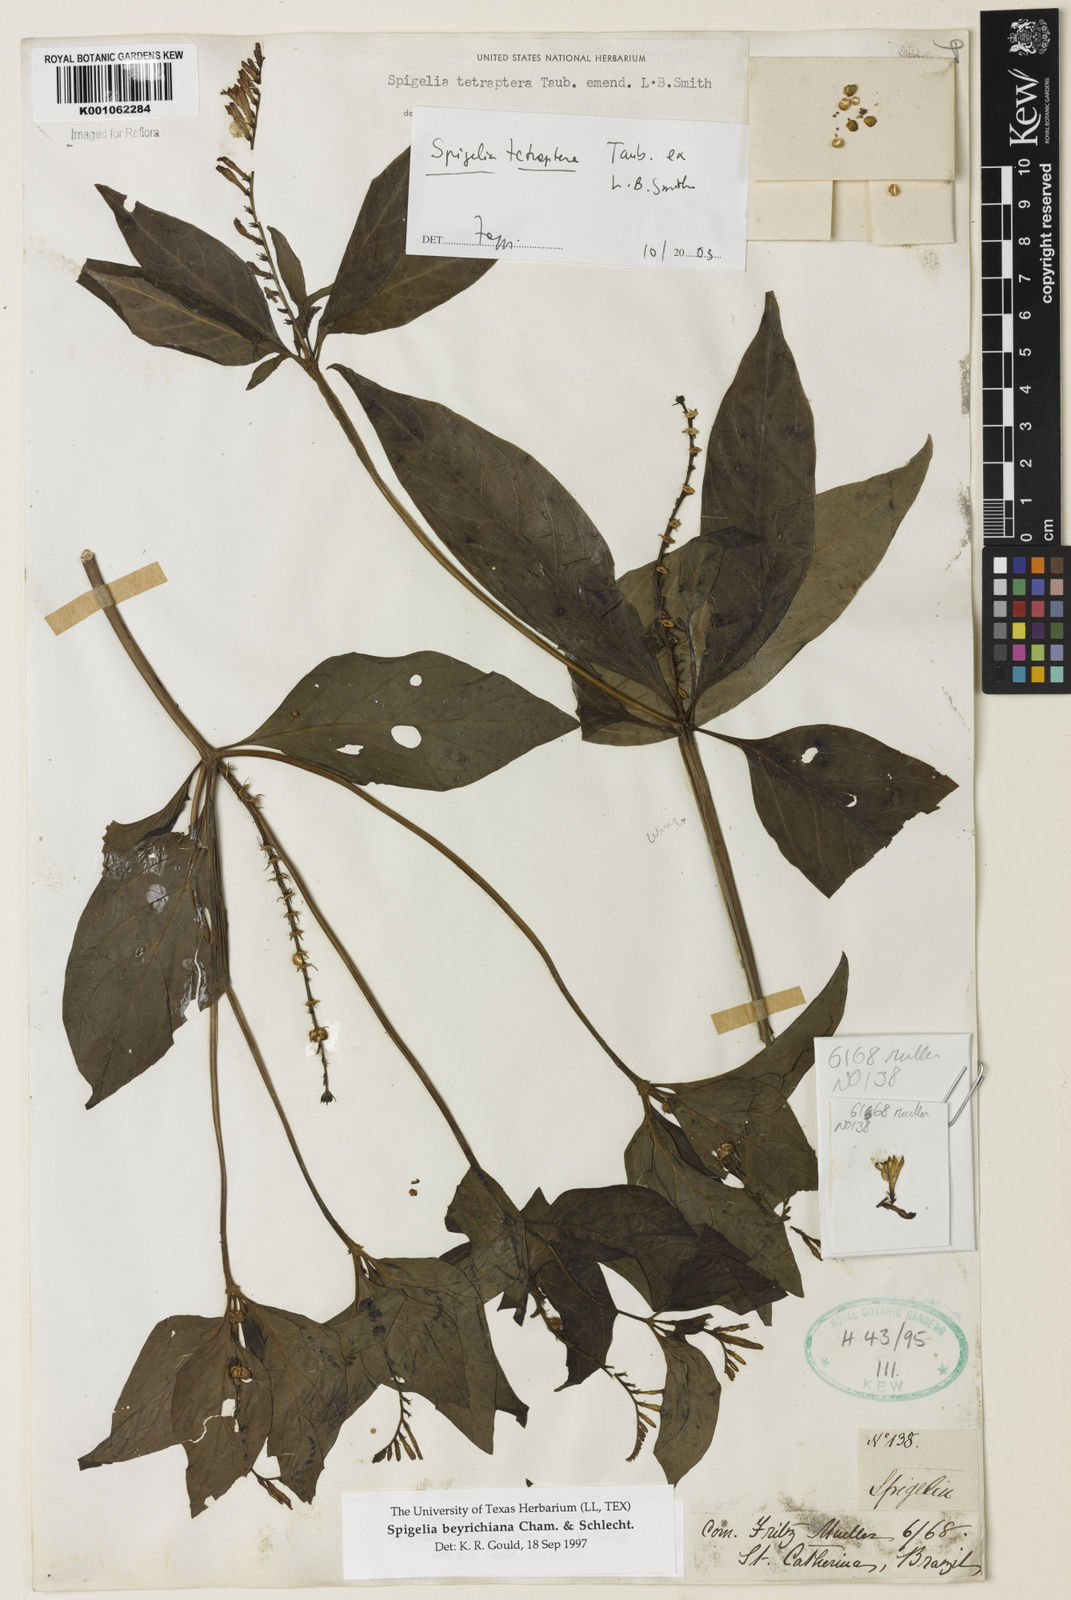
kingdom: Plantae
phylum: Tracheophyta
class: Magnoliopsida
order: Gentianales
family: Loganiaceae
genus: Spigelia
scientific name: Spigelia tetraptera
